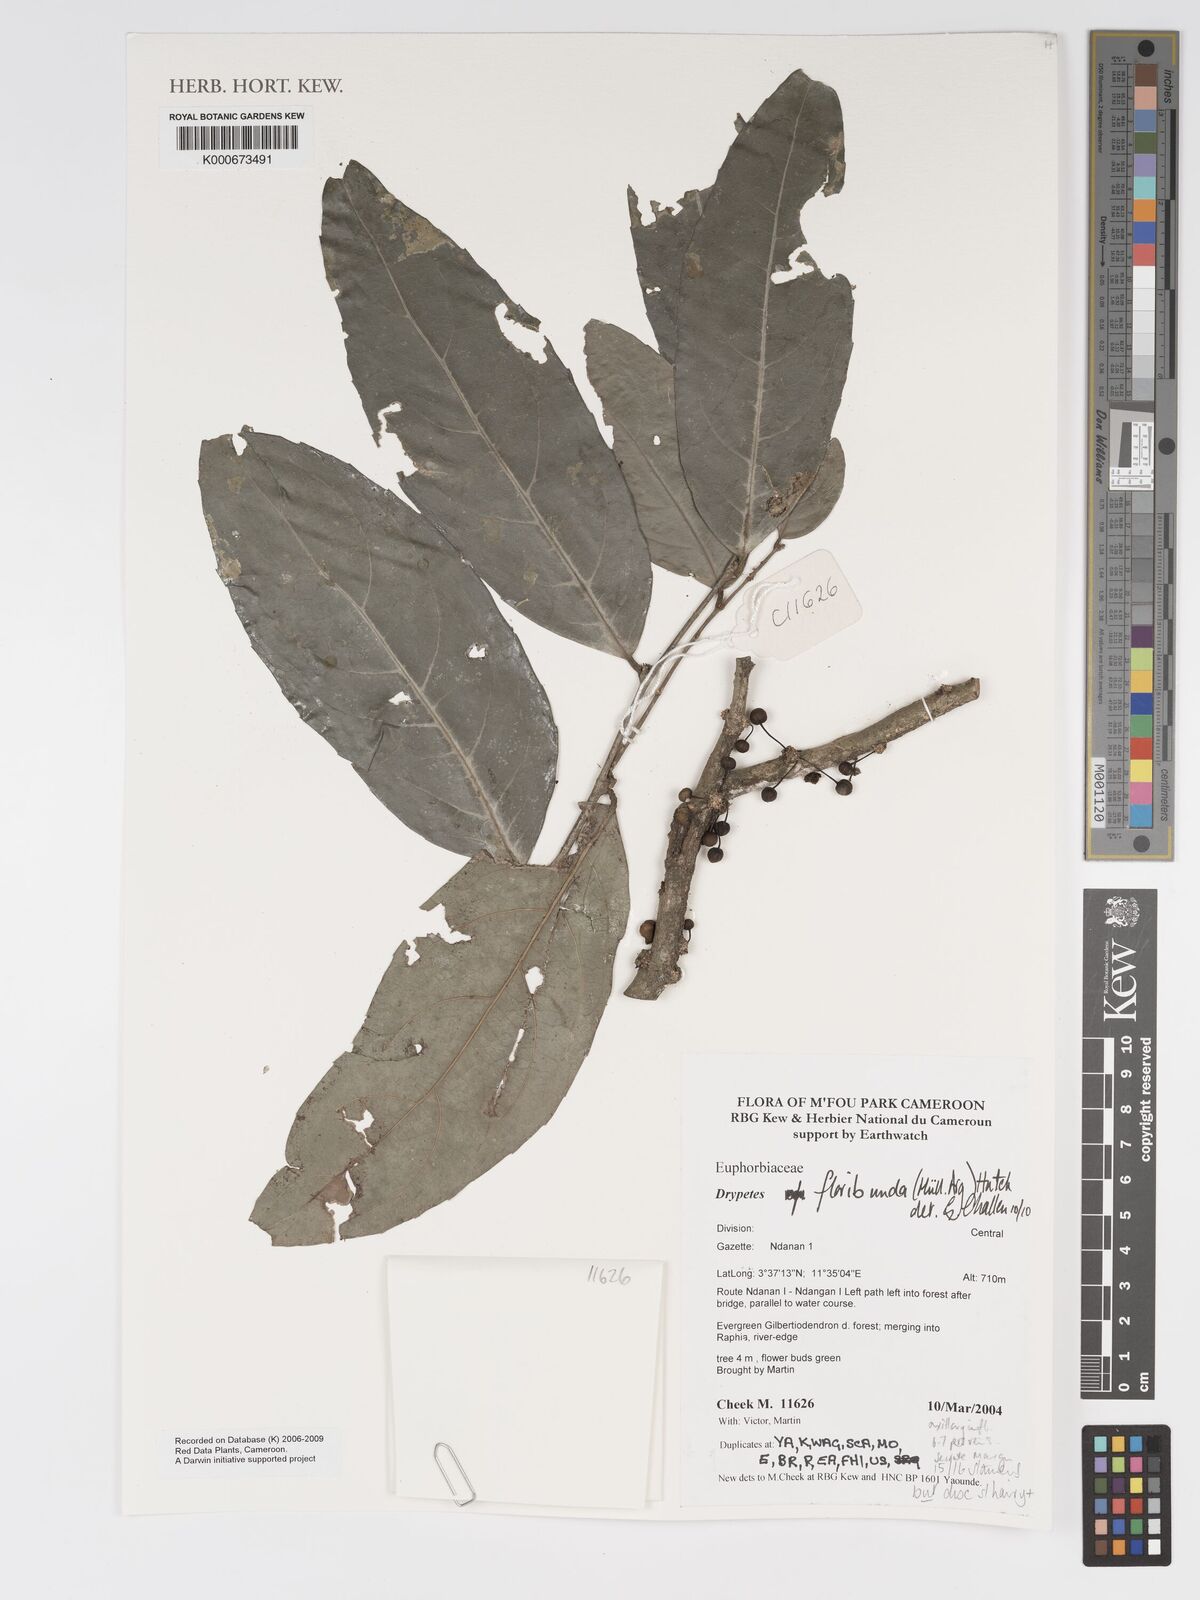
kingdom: Plantae
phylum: Tracheophyta
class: Magnoliopsida
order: Malpighiales
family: Putranjivaceae
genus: Drypetes
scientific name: Drypetes
